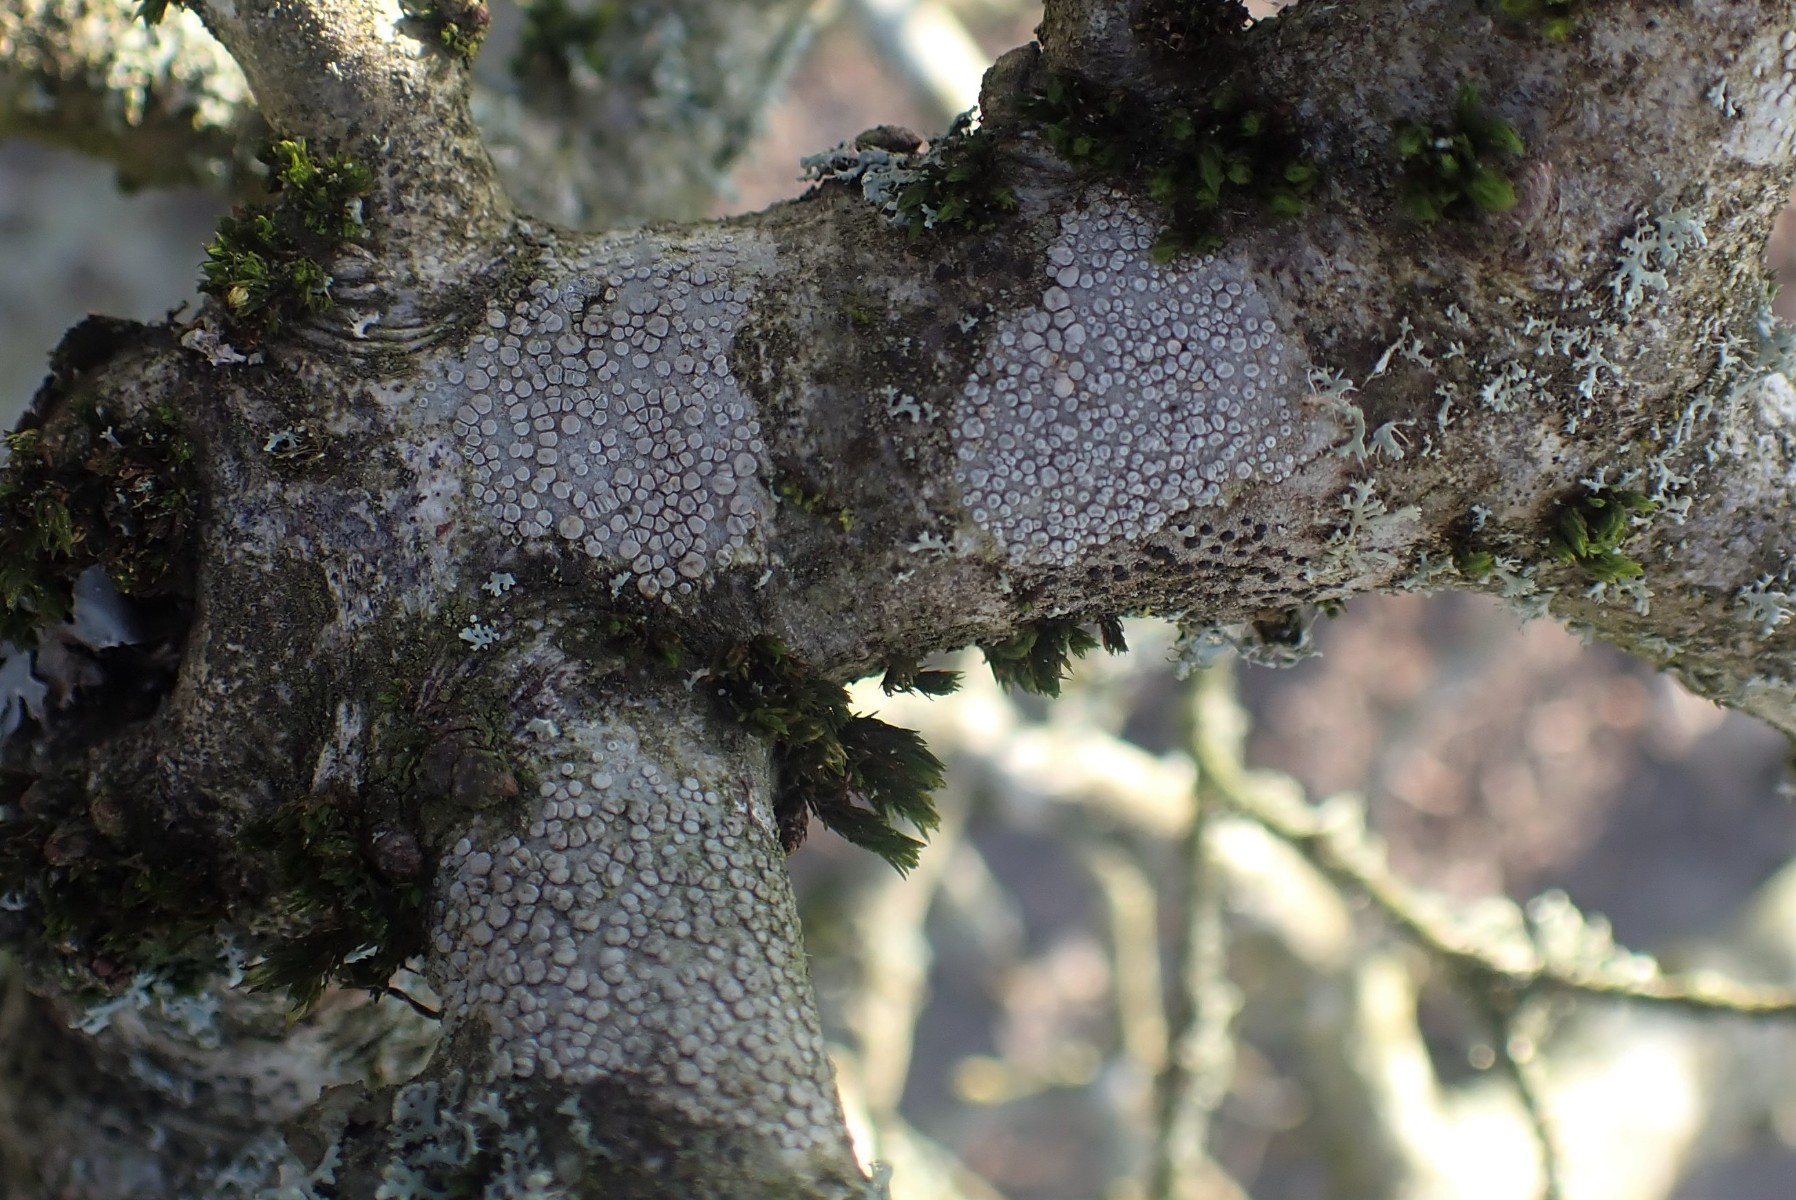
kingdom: Fungi
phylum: Ascomycota
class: Lecanoromycetes
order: Lecanorales
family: Lecanoraceae
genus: Glaucomaria
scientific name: Glaucomaria carpinea
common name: hviddugget kantskivelav
